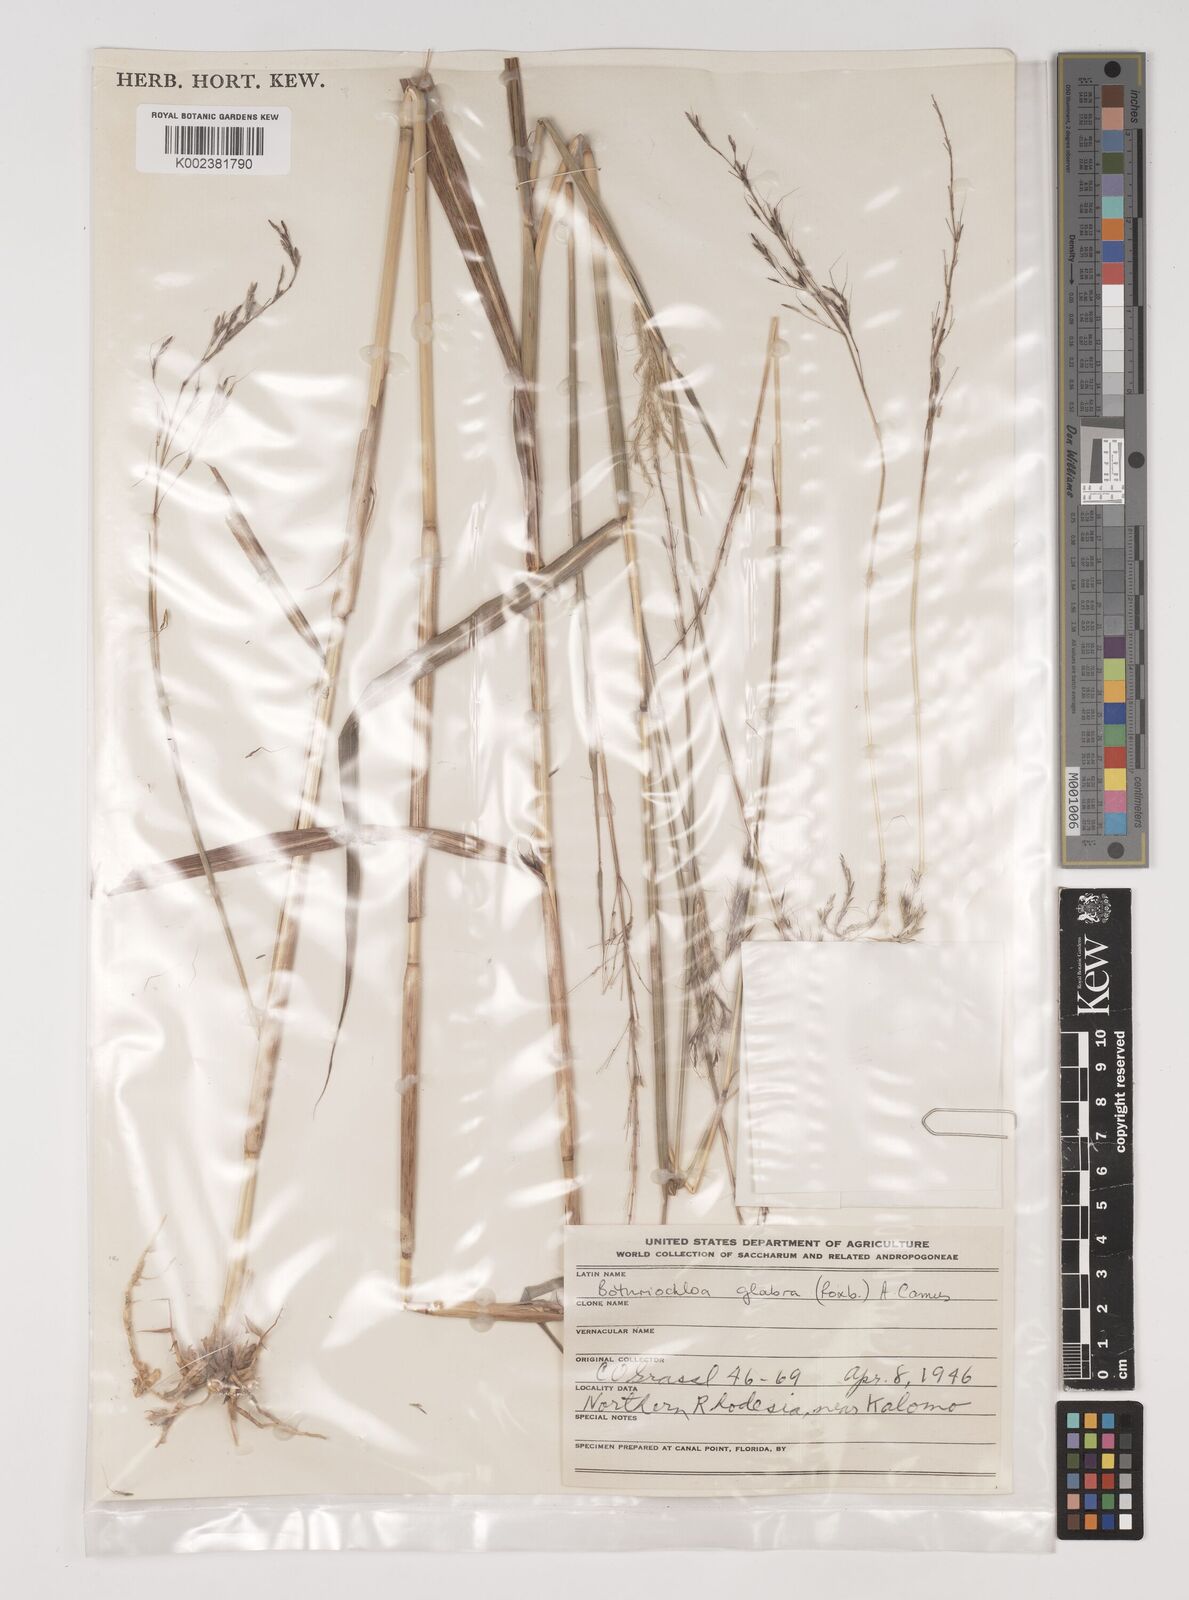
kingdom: Plantae
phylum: Tracheophyta
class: Liliopsida
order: Poales
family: Poaceae
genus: Bothriochloa
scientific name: Bothriochloa bladhii
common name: Caucasian bluestem
